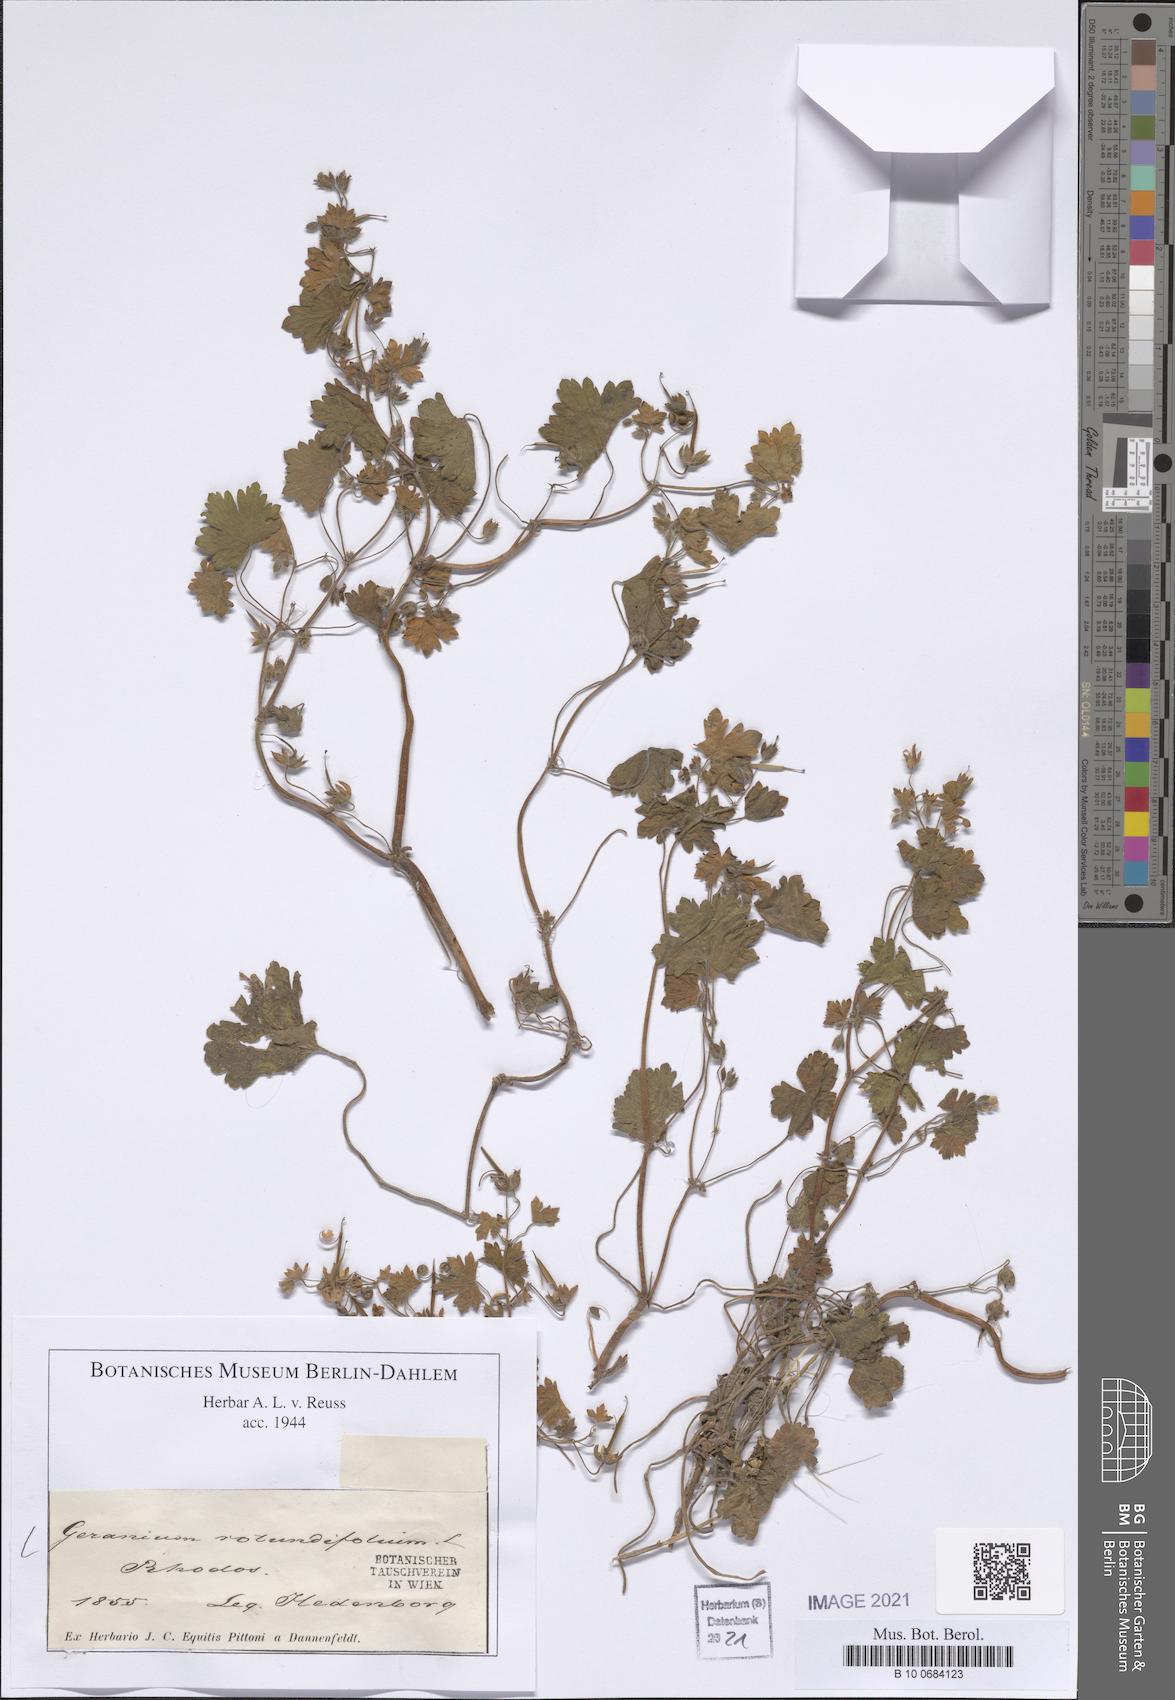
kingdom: Plantae
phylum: Tracheophyta
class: Magnoliopsida
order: Geraniales
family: Geraniaceae
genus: Geranium
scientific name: Geranium rotundifolium
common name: Round-leaved crane's-bill
